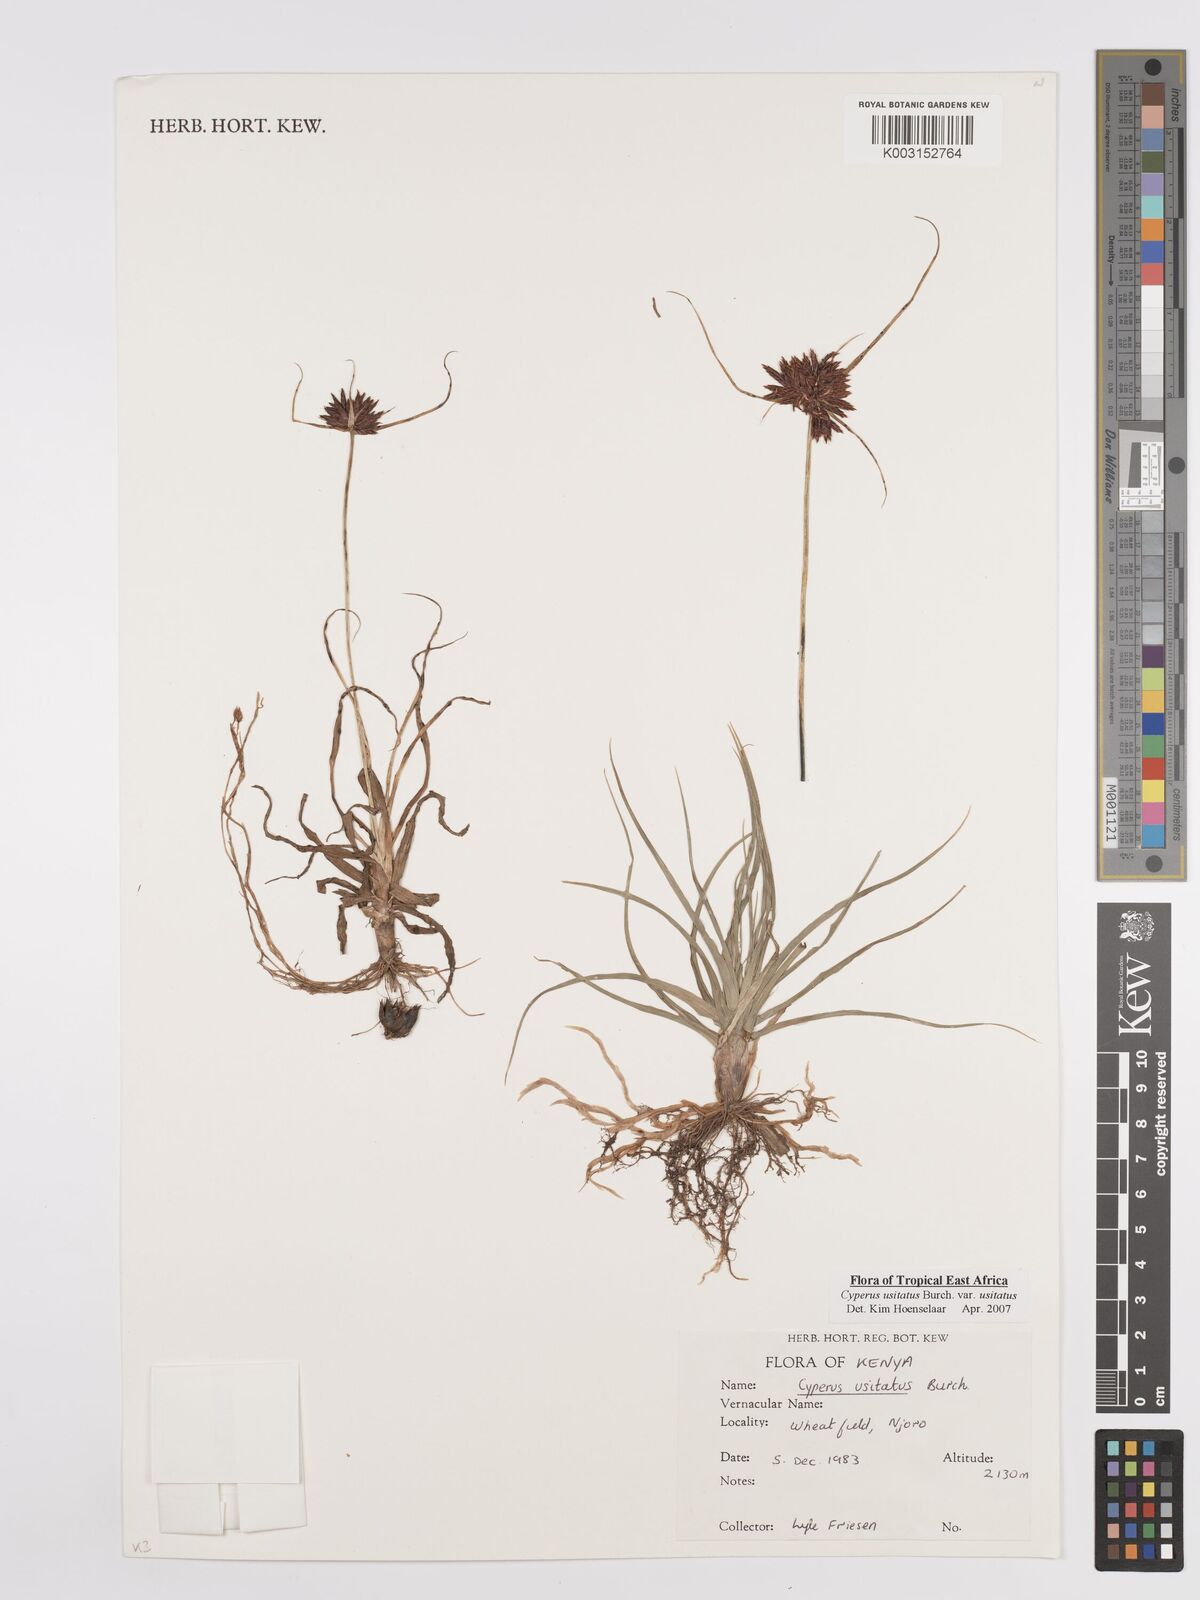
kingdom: Plantae
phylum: Tracheophyta
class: Liliopsida
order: Poales
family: Cyperaceae
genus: Cyperus
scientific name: Cyperus usitatus
